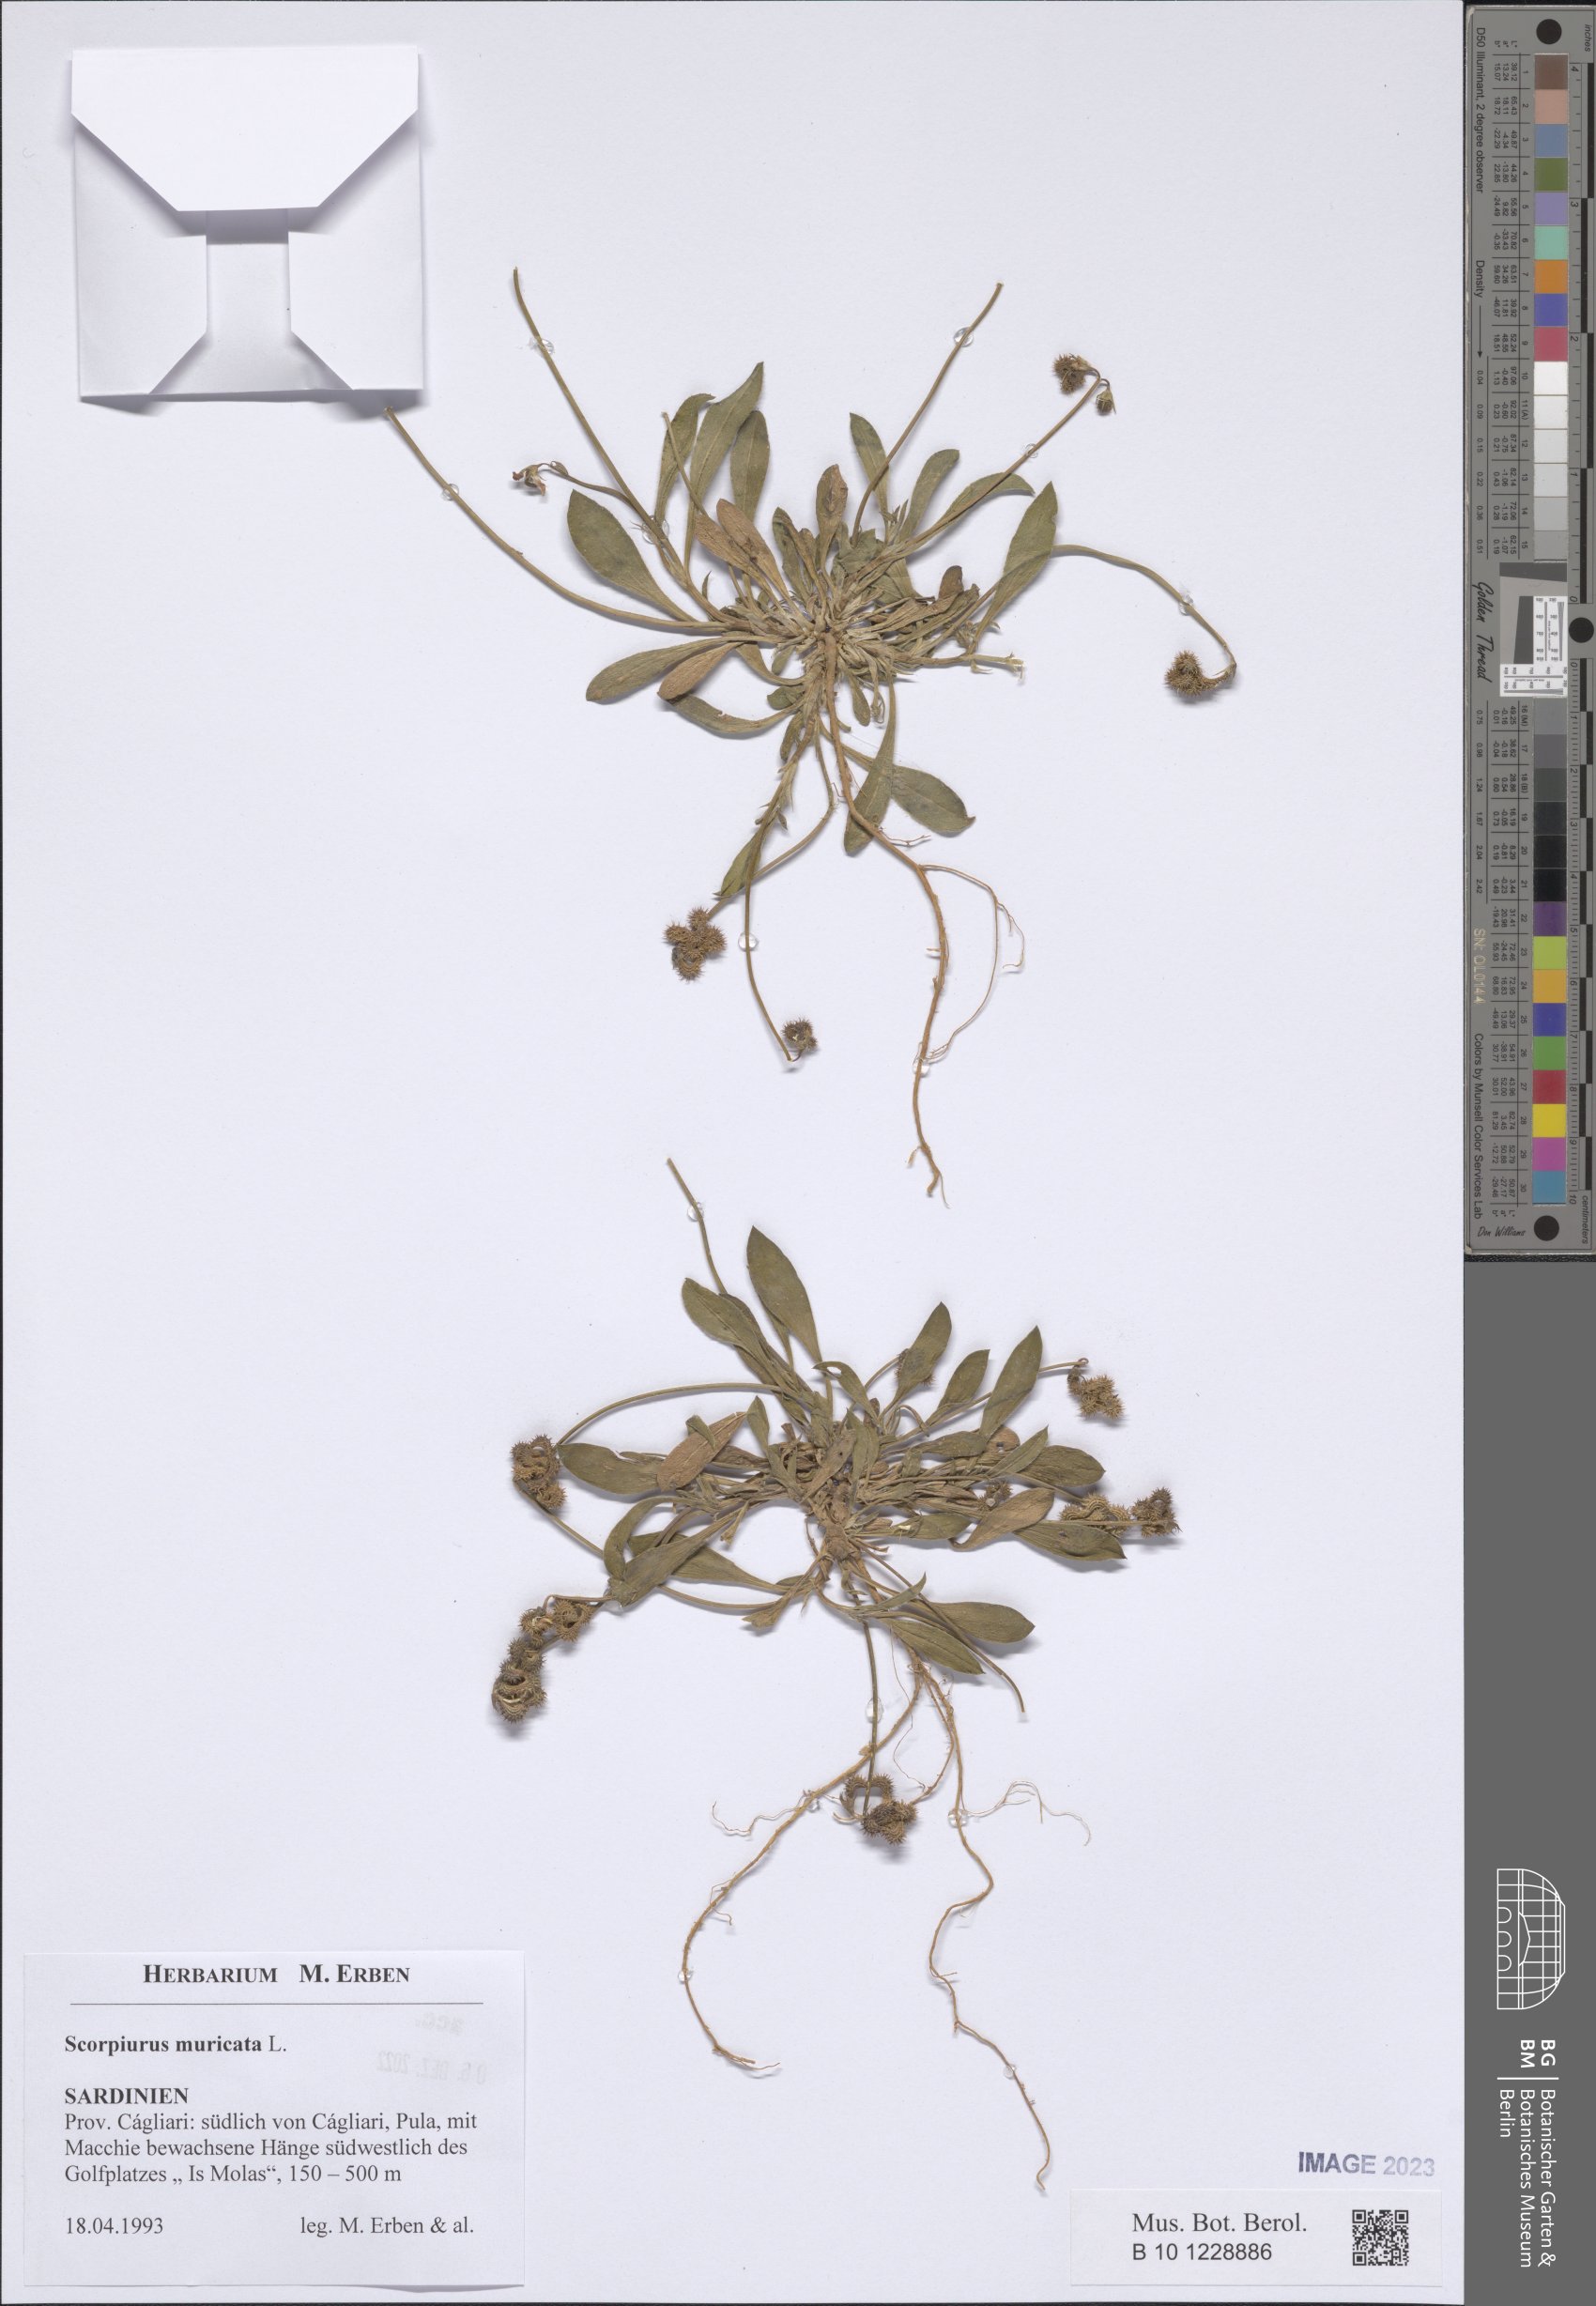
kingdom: Plantae
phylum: Tracheophyta
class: Magnoliopsida
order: Fabales
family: Fabaceae
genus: Scorpiurus
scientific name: Scorpiurus muricatus
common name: Caterpillar-plant
